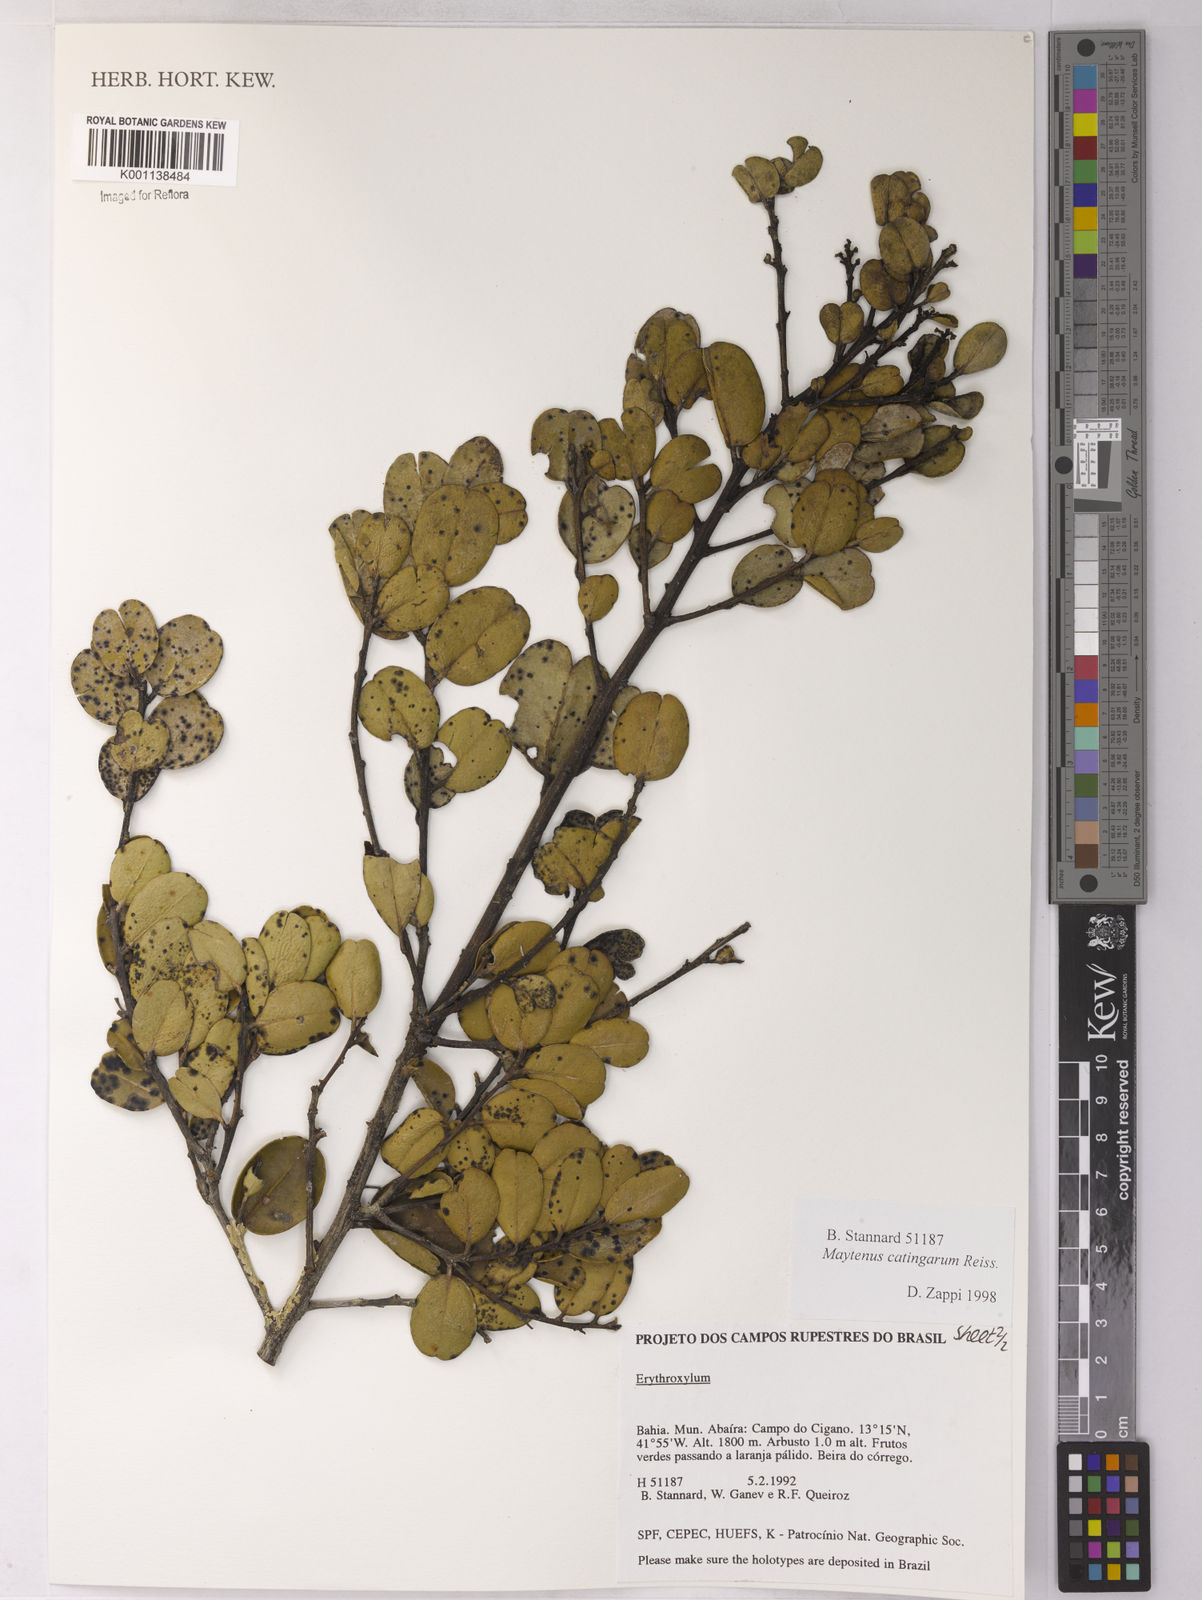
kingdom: Plantae
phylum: Tracheophyta
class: Magnoliopsida
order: Celastrales
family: Celastraceae
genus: Monteverdia
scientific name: Monteverdia catingarum
